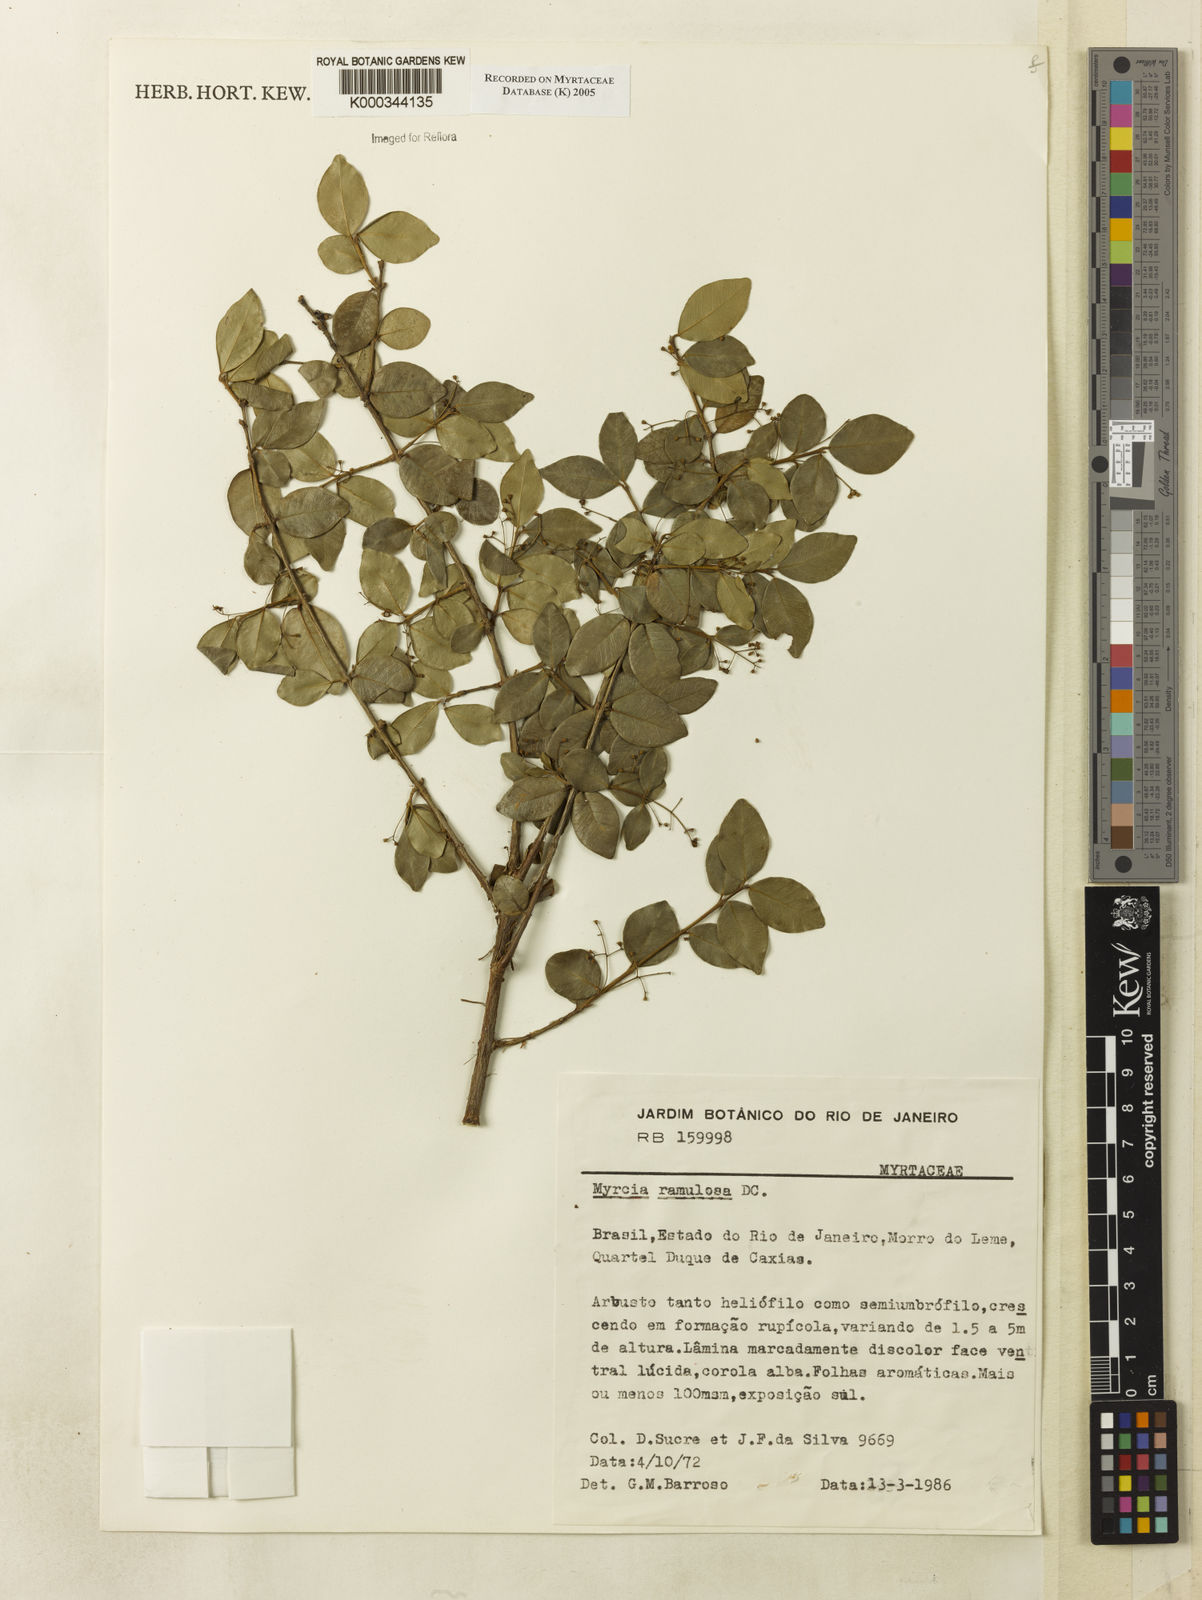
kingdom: Plantae
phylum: Tracheophyta
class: Magnoliopsida
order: Myrtales
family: Myrtaceae
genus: Myrcia
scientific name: Myrcia selloi
